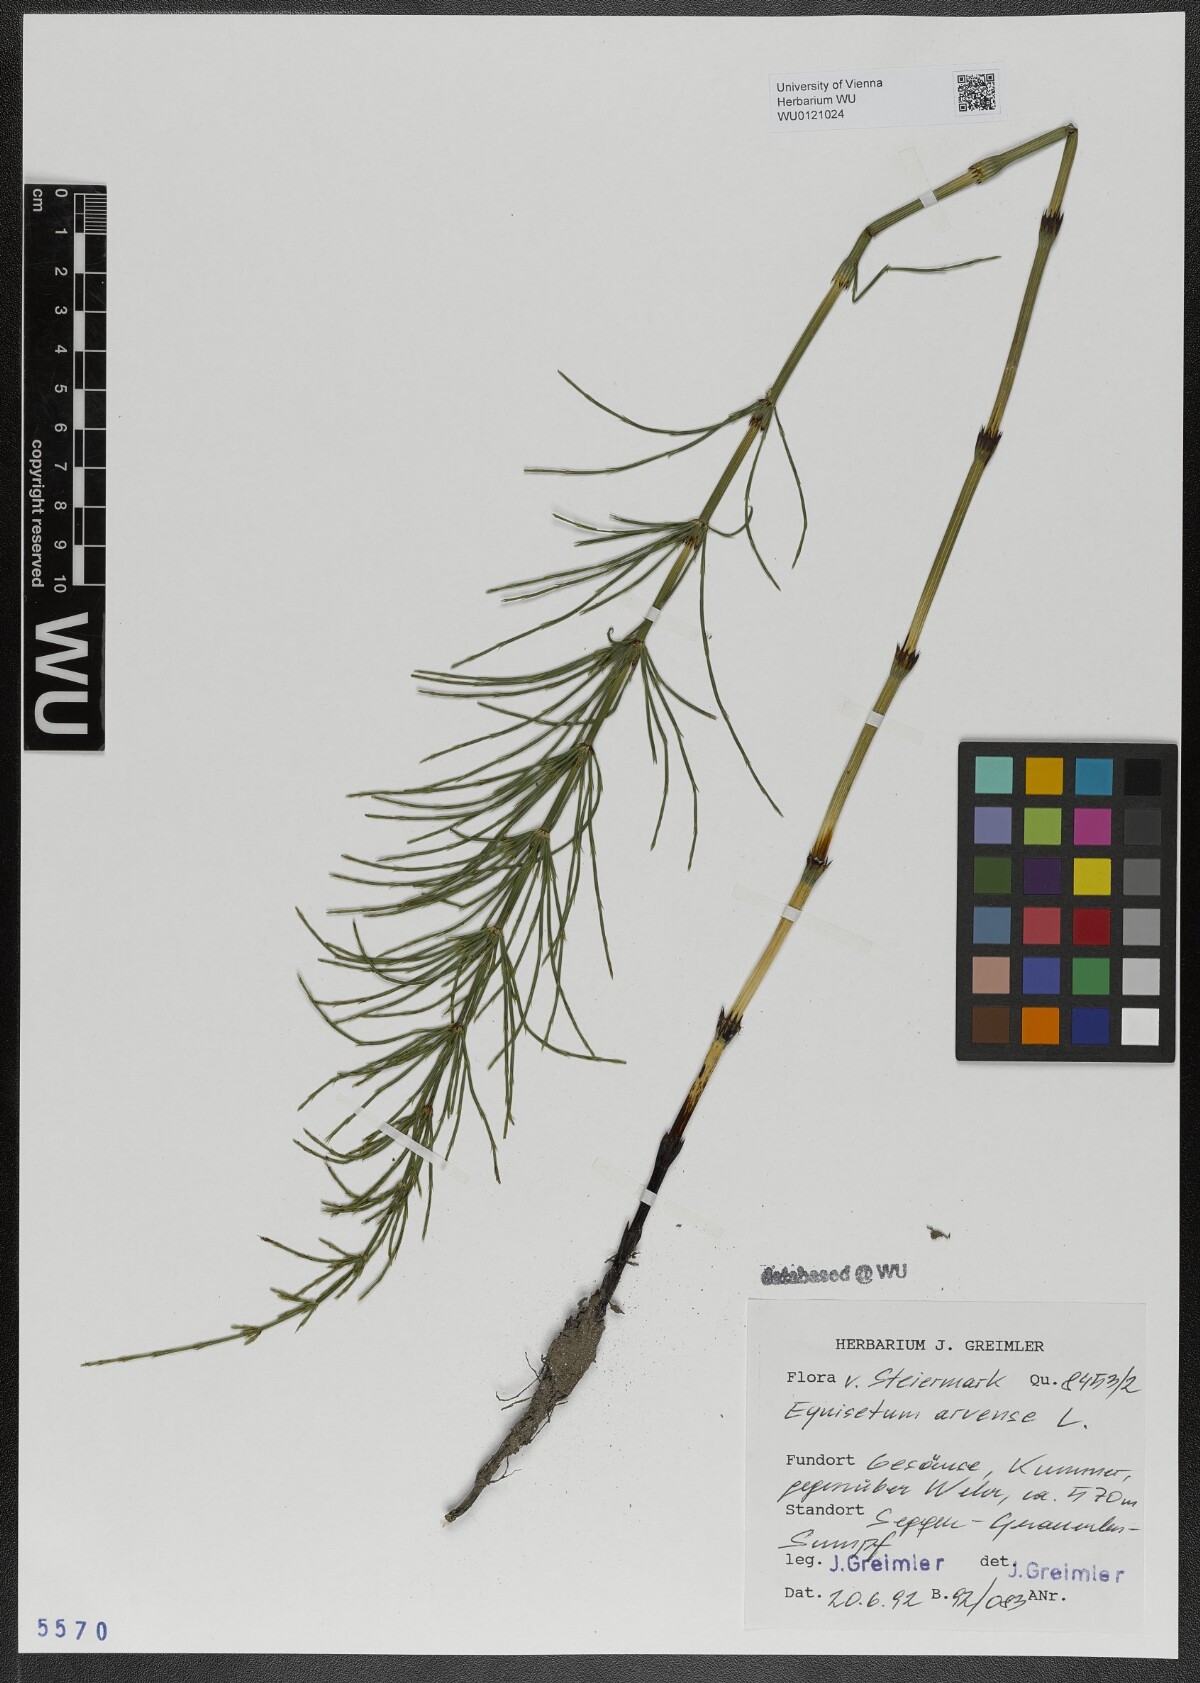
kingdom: Plantae
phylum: Tracheophyta
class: Polypodiopsida
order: Equisetales
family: Equisetaceae
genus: Equisetum
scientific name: Equisetum arvense
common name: Field horsetail
